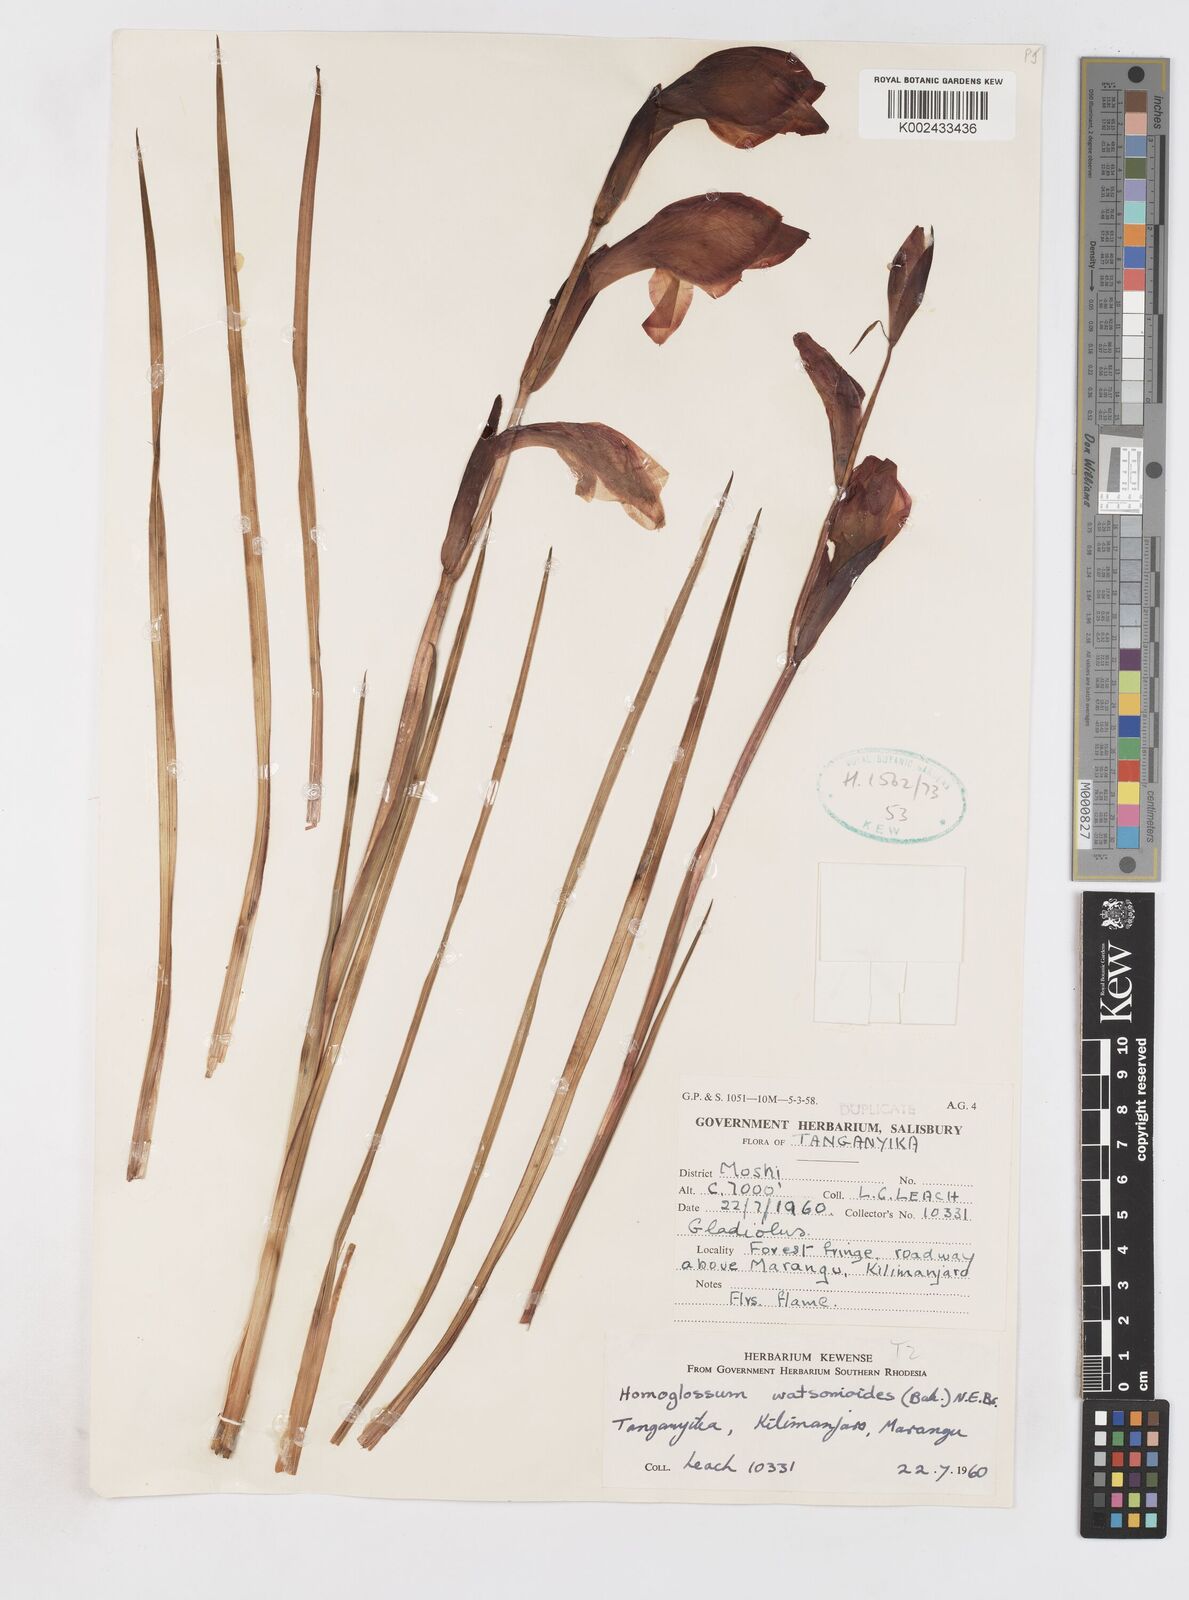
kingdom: Plantae
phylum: Tracheophyta
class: Liliopsida
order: Asparagales
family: Iridaceae
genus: Gladiolus
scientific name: Gladiolus dalenii
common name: Cornflag
